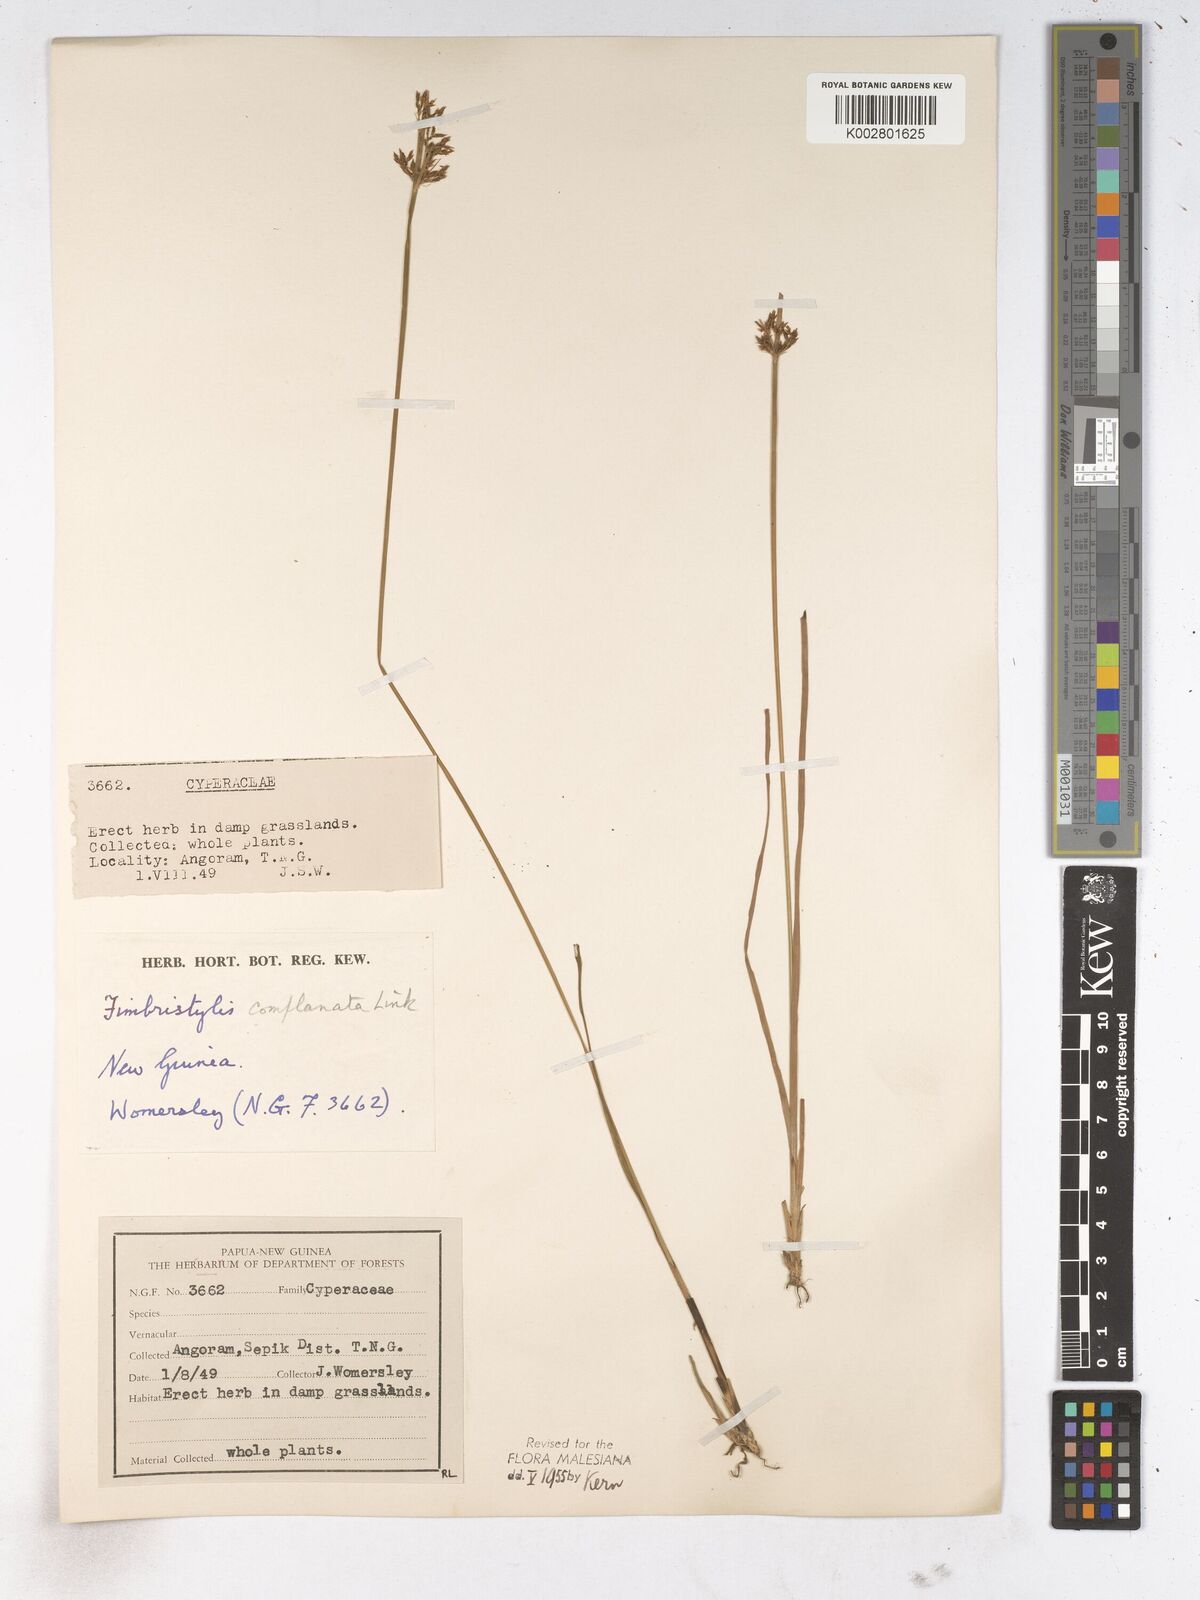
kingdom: Plantae
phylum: Tracheophyta
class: Liliopsida
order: Poales
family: Cyperaceae
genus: Fimbristylis
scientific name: Fimbristylis complanata
